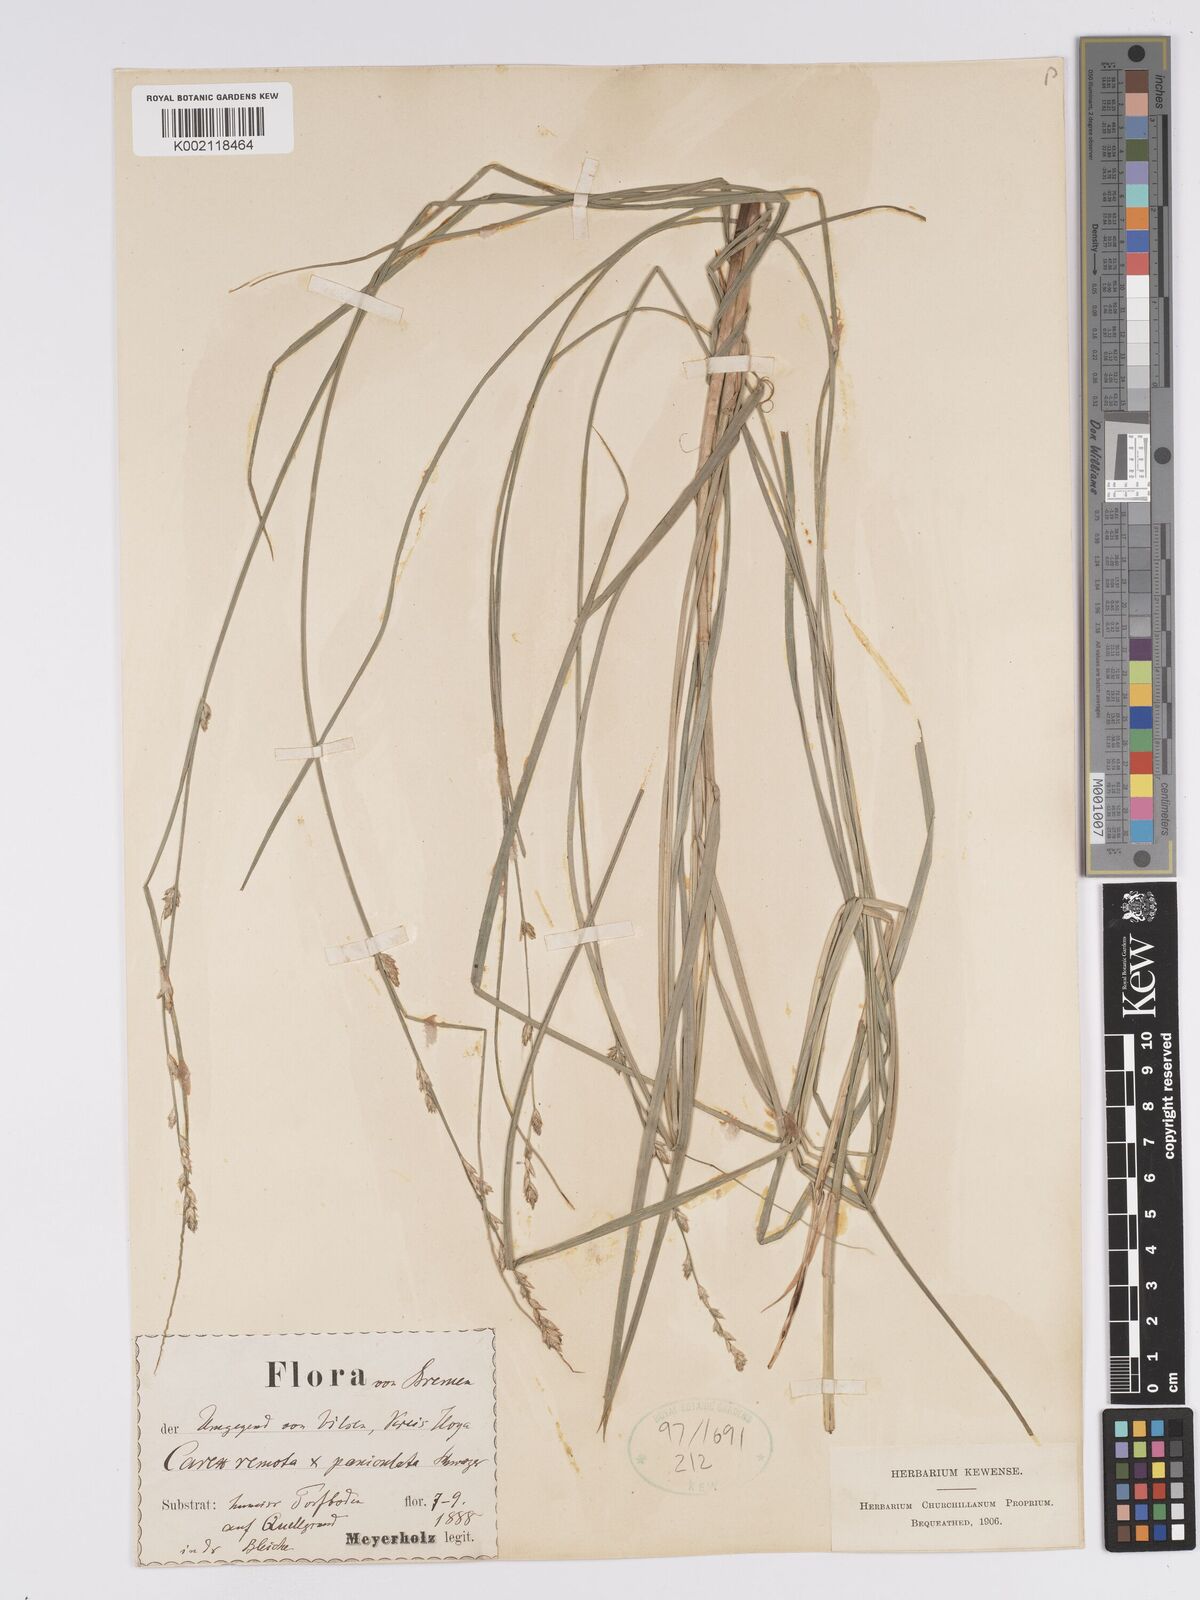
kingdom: Plantae
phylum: Tracheophyta
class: Liliopsida
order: Poales
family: Cyperaceae
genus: Carex
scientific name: Carex boenninghausiana
